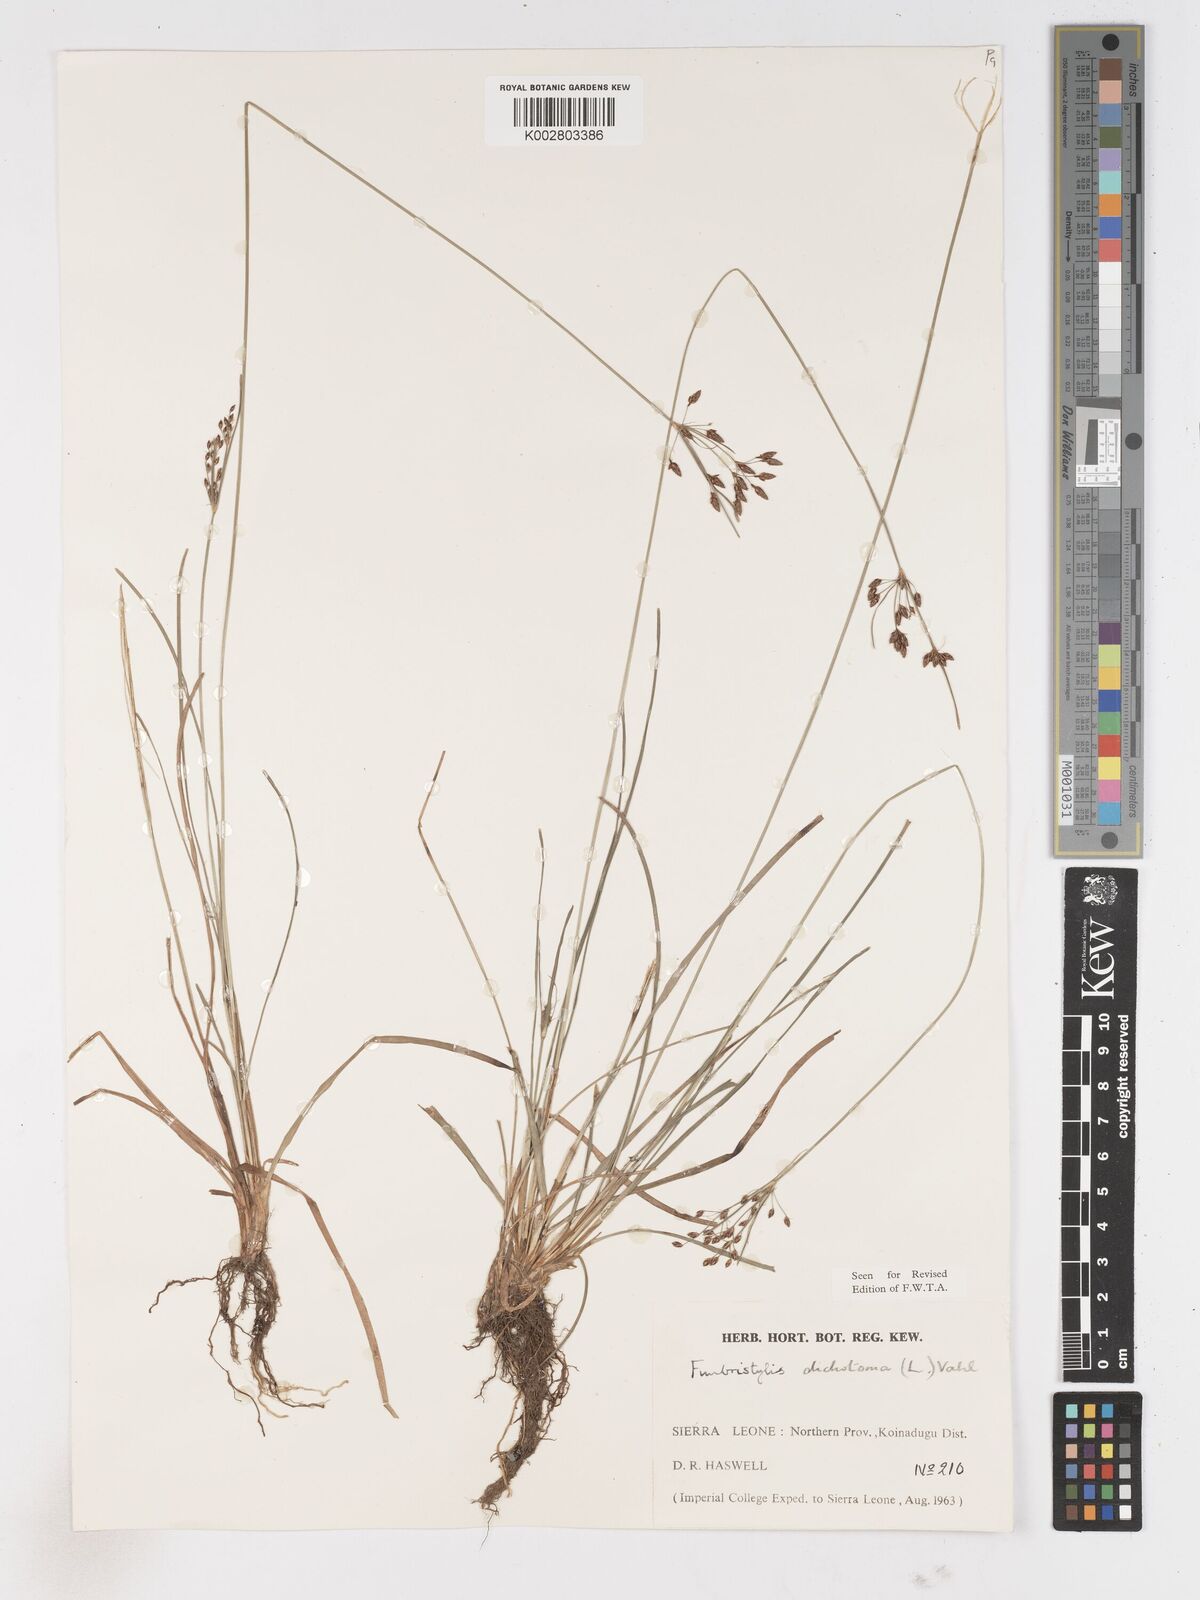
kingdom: Plantae
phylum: Tracheophyta
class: Liliopsida
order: Poales
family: Cyperaceae
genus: Fimbristylis
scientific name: Fimbristylis dichotoma
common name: Forked fimbry
